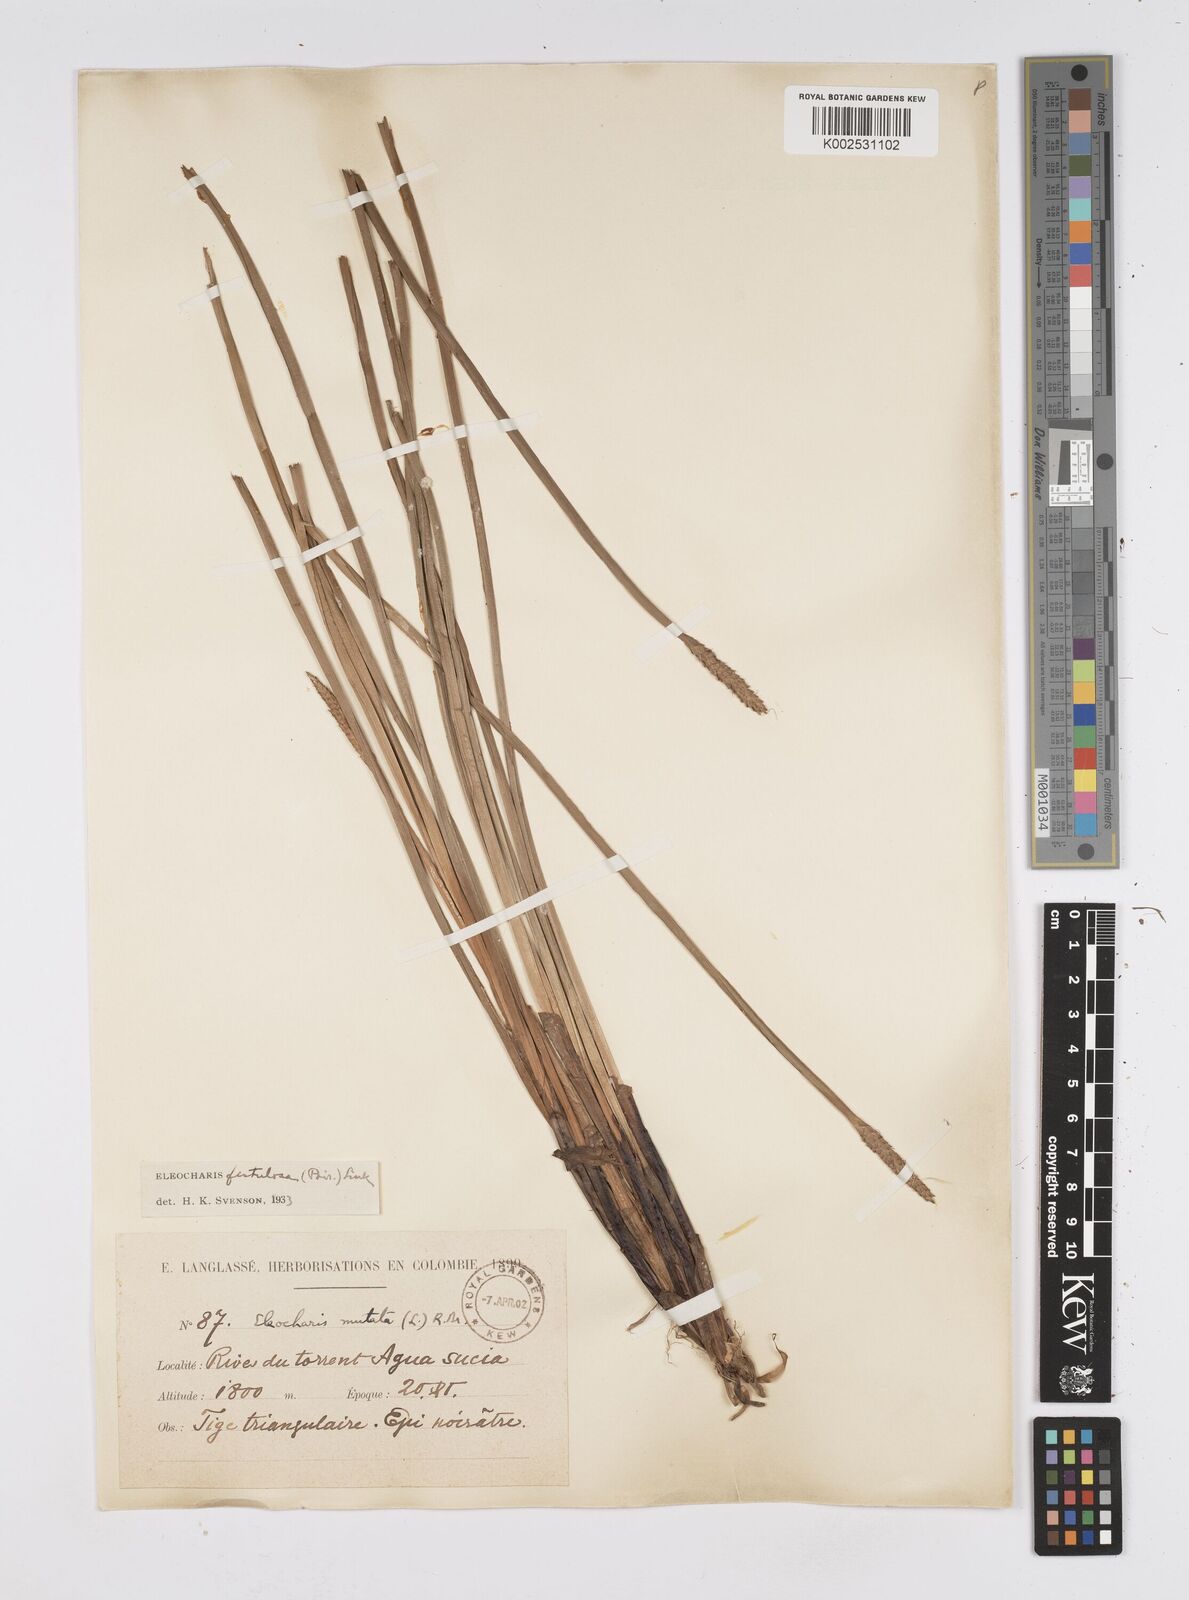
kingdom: Plantae
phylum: Tracheophyta
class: Liliopsida
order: Poales
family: Cyperaceae
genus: Eleocharis
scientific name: Eleocharis acutangula
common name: Acute spikerush
